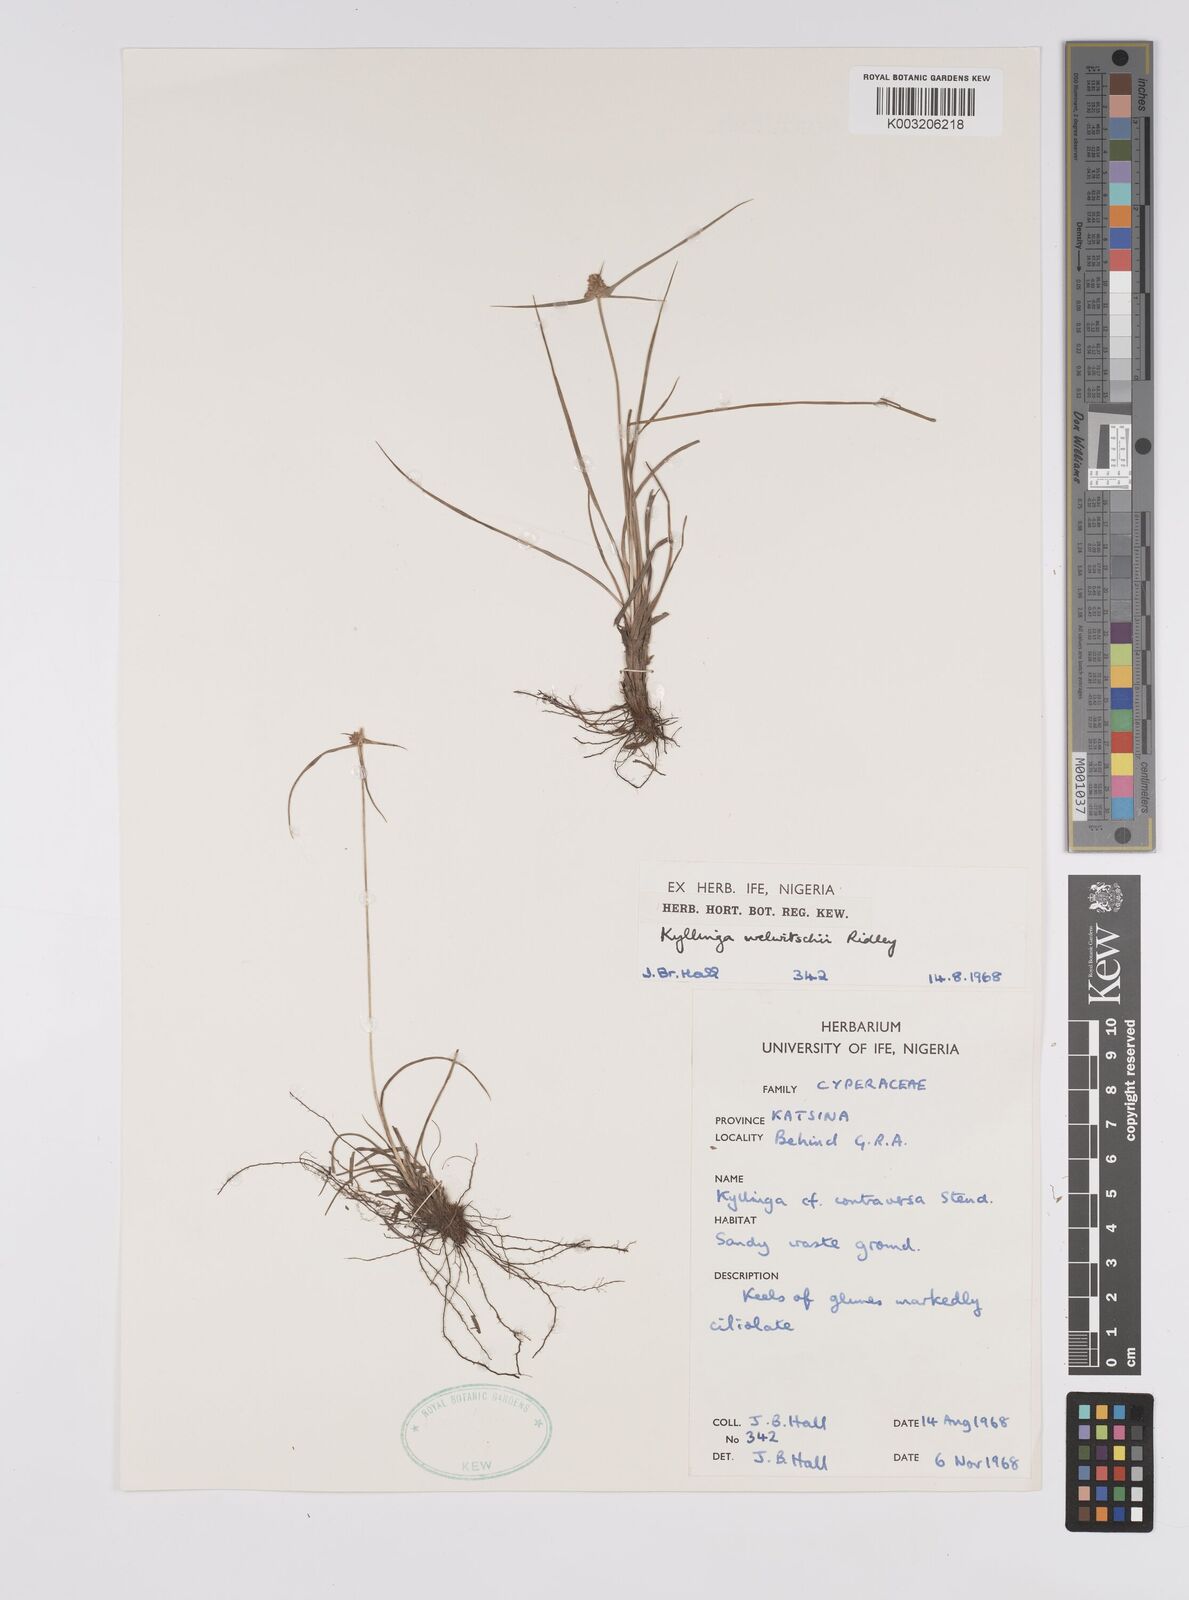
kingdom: Plantae
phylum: Tracheophyta
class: Liliopsida
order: Poales
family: Cyperaceae
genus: Cyperus
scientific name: Cyperus
